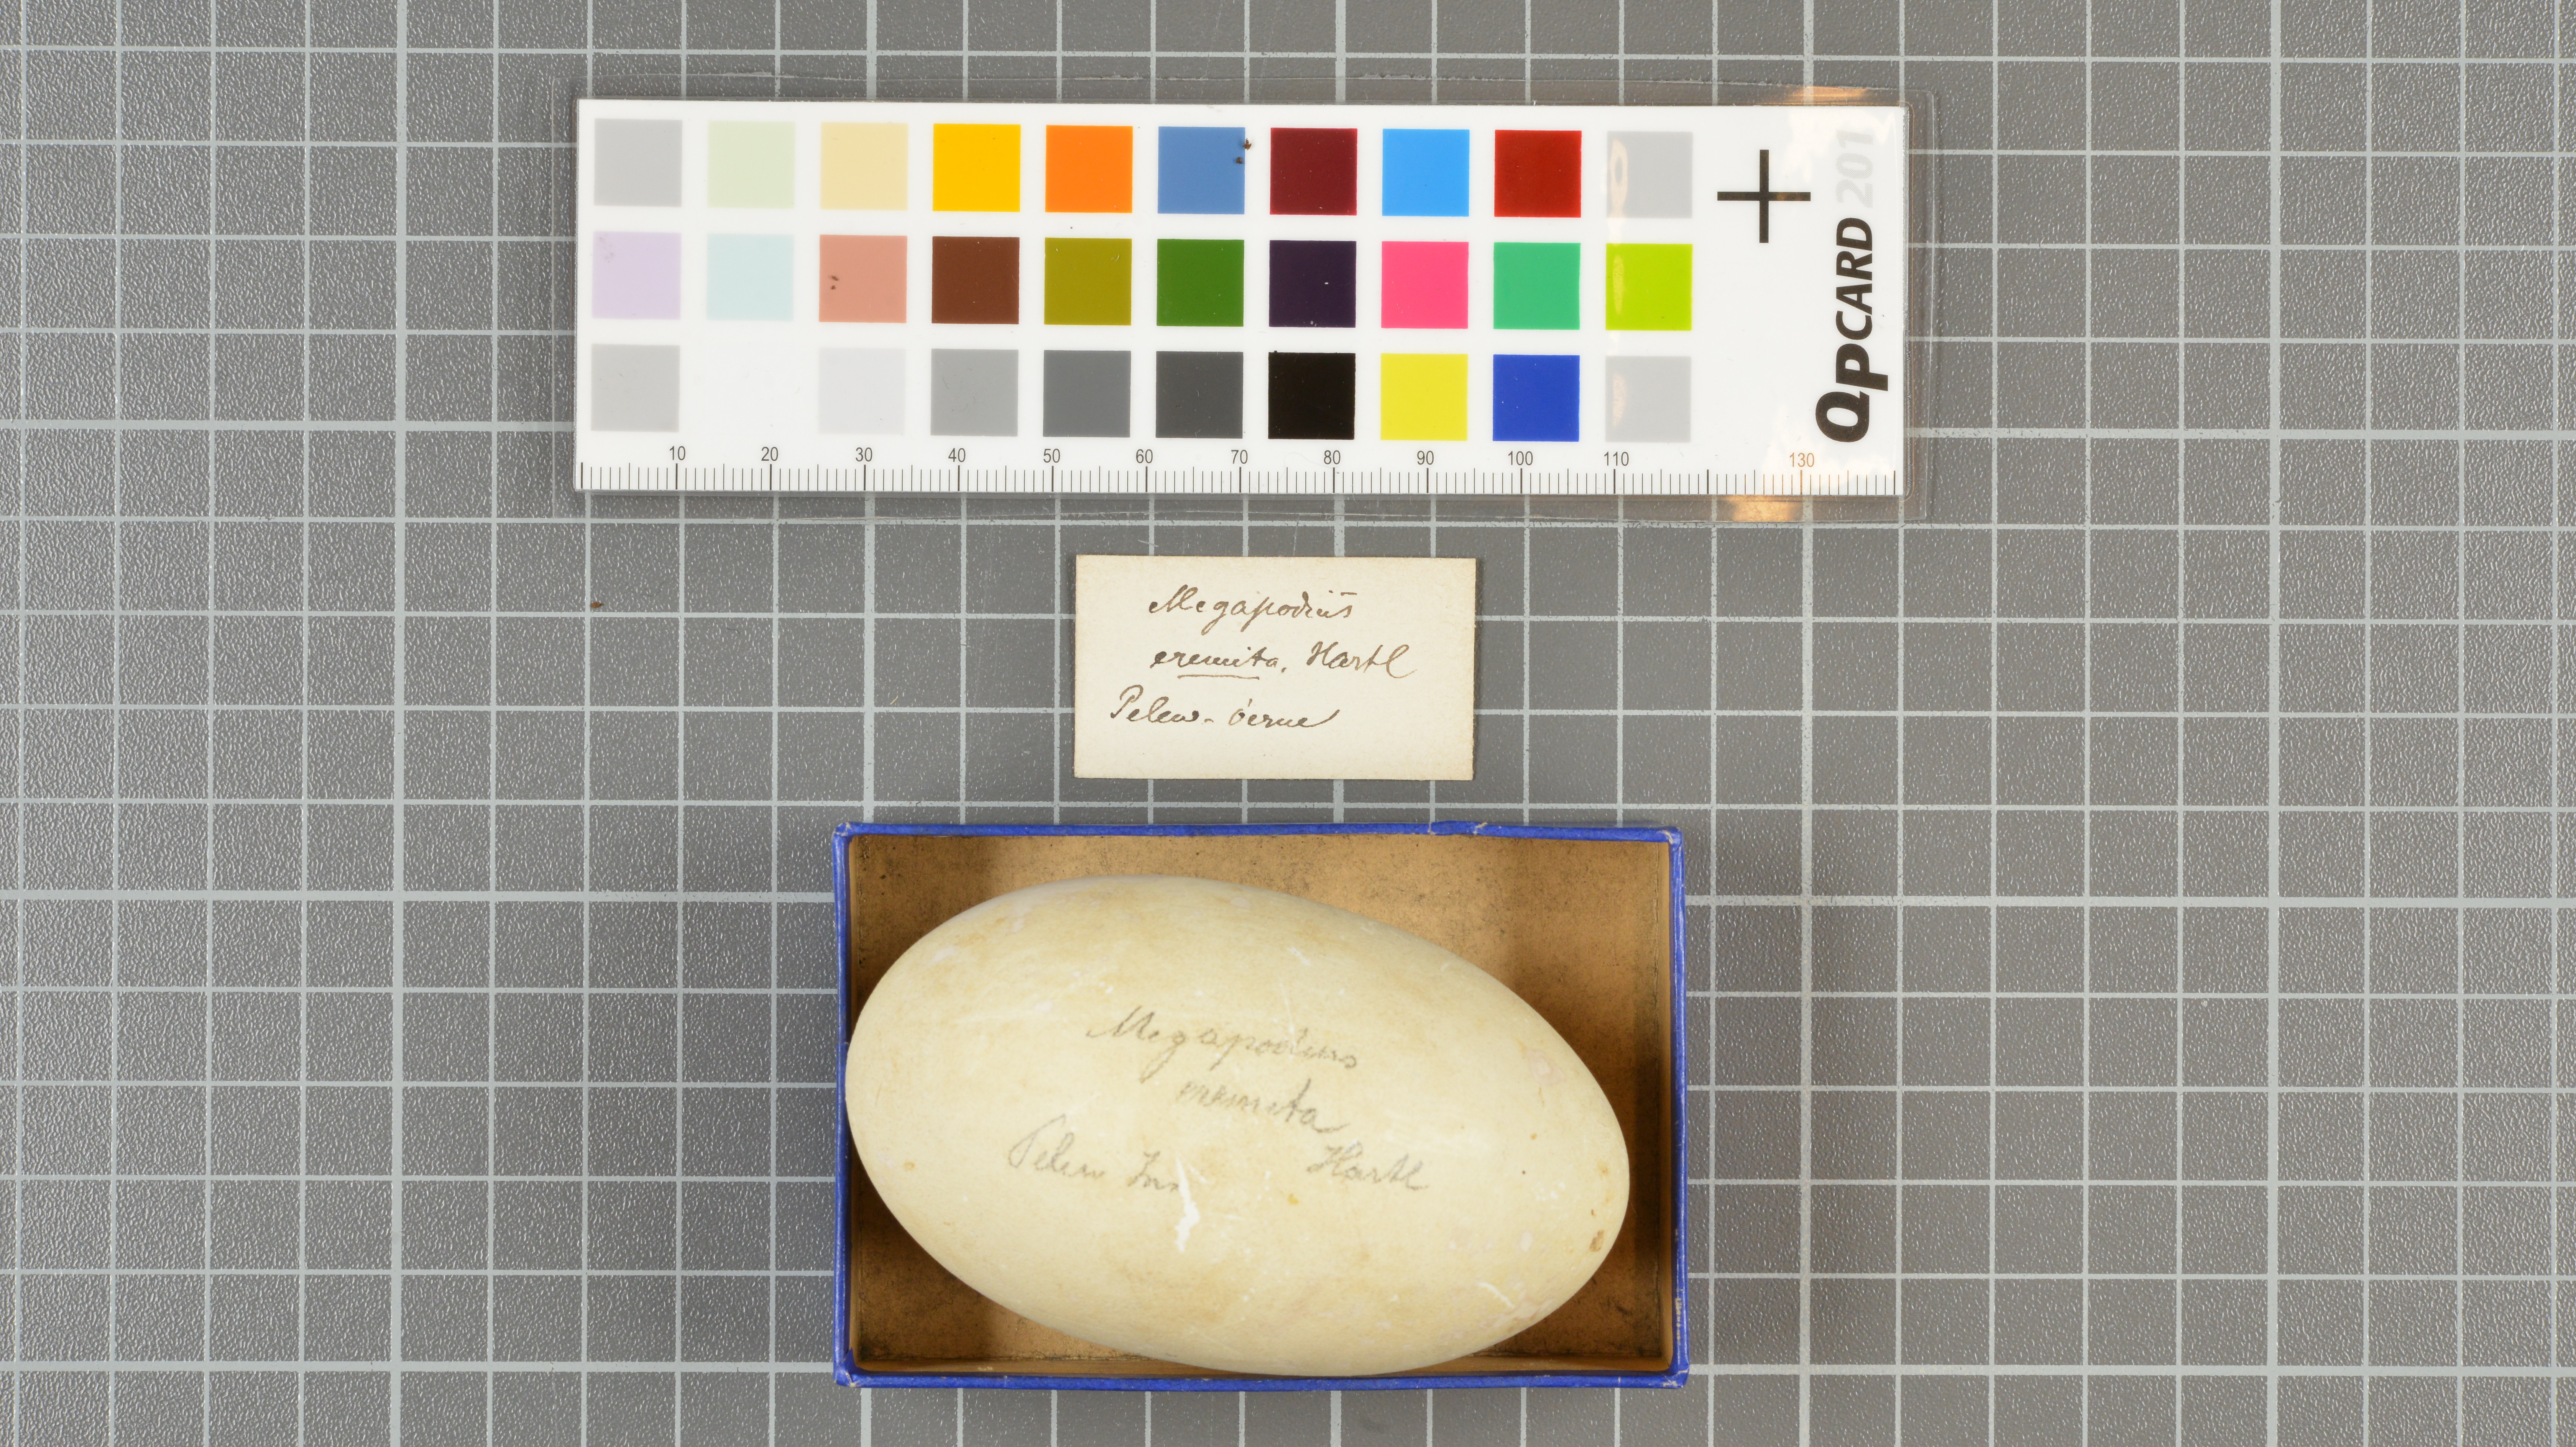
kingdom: Animalia
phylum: Chordata
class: Aves
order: Galliformes
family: Megapodiidae
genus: Megapodius
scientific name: Megapodius eremita
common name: Melanesian megapode
